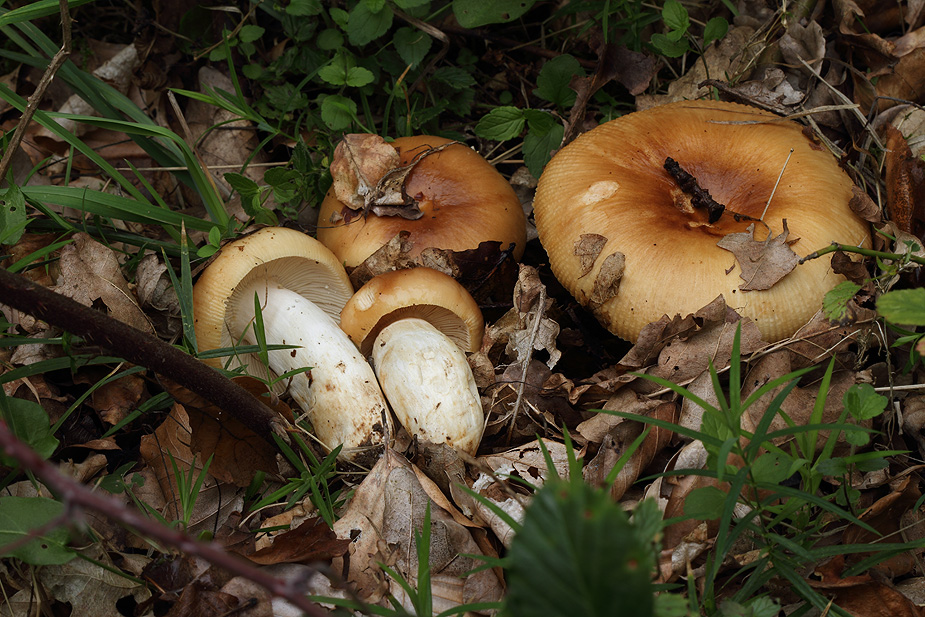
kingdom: Fungi
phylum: Basidiomycota
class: Agaricomycetes
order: Russulales
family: Russulaceae
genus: Russula
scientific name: Russula foetens
